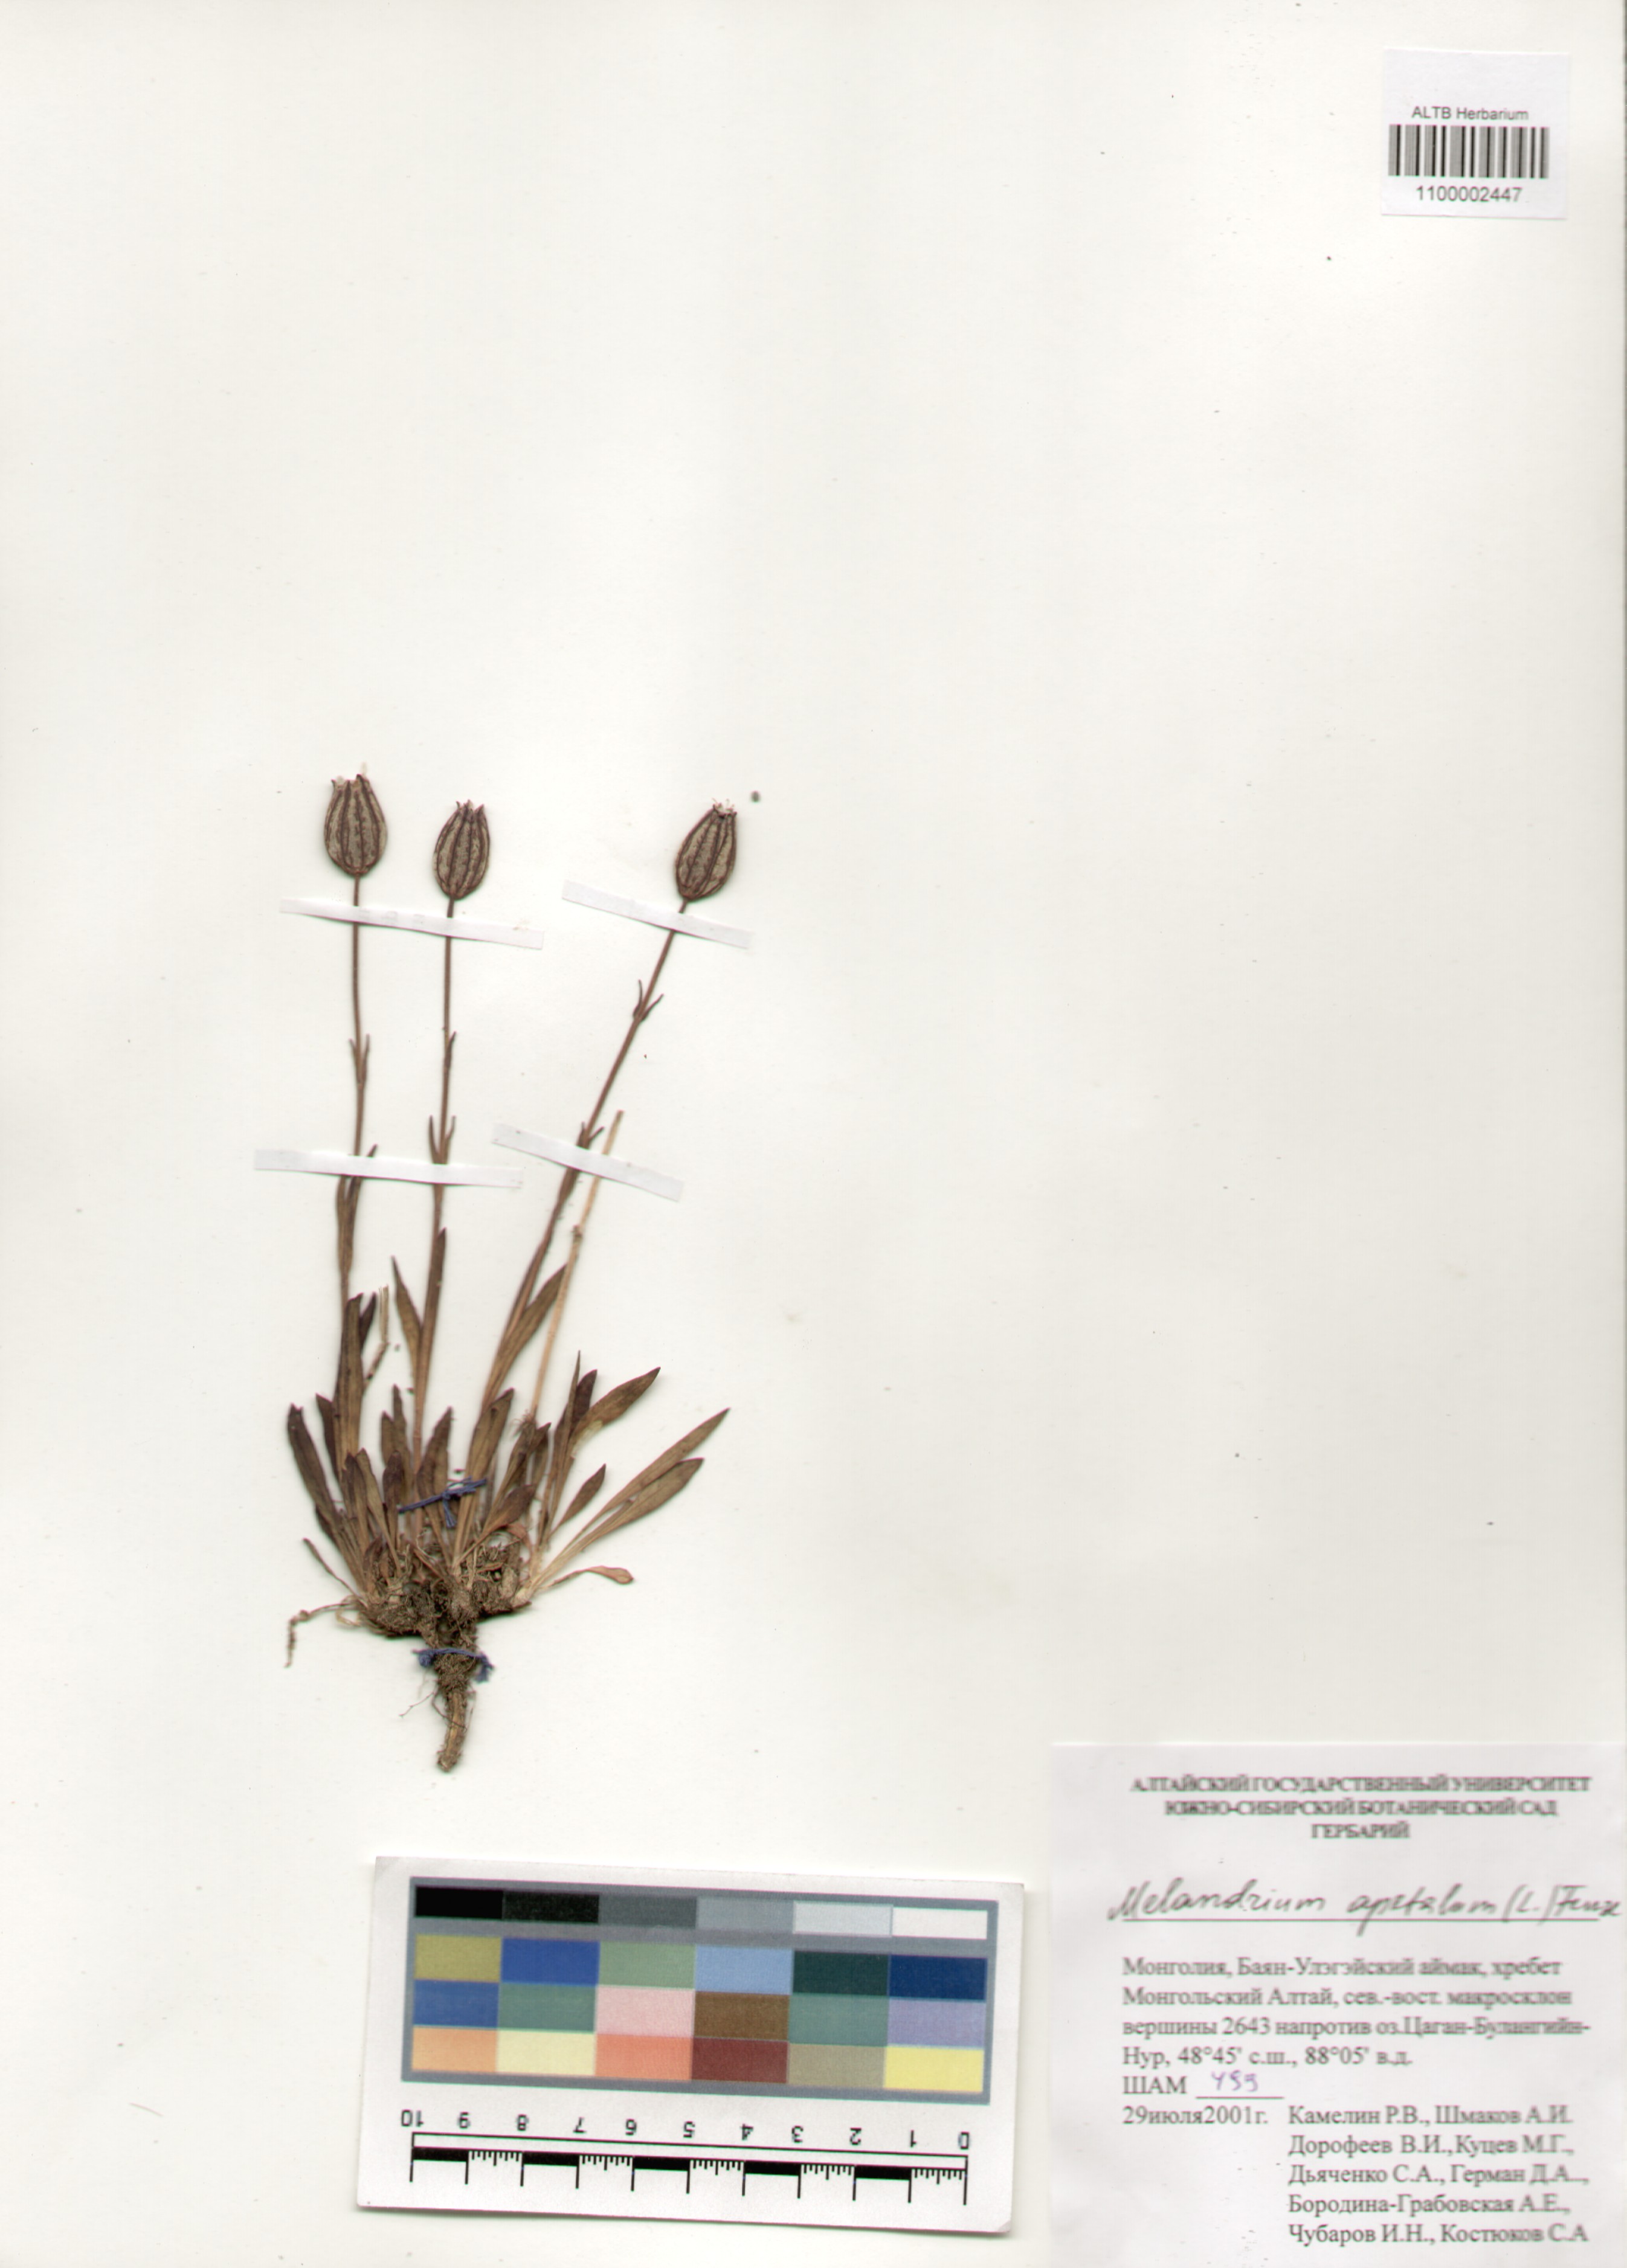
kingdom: Plantae
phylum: Tracheophyta
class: Magnoliopsida
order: Caryophyllales
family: Caryophyllaceae
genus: Silene
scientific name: Silene wahlbergella
